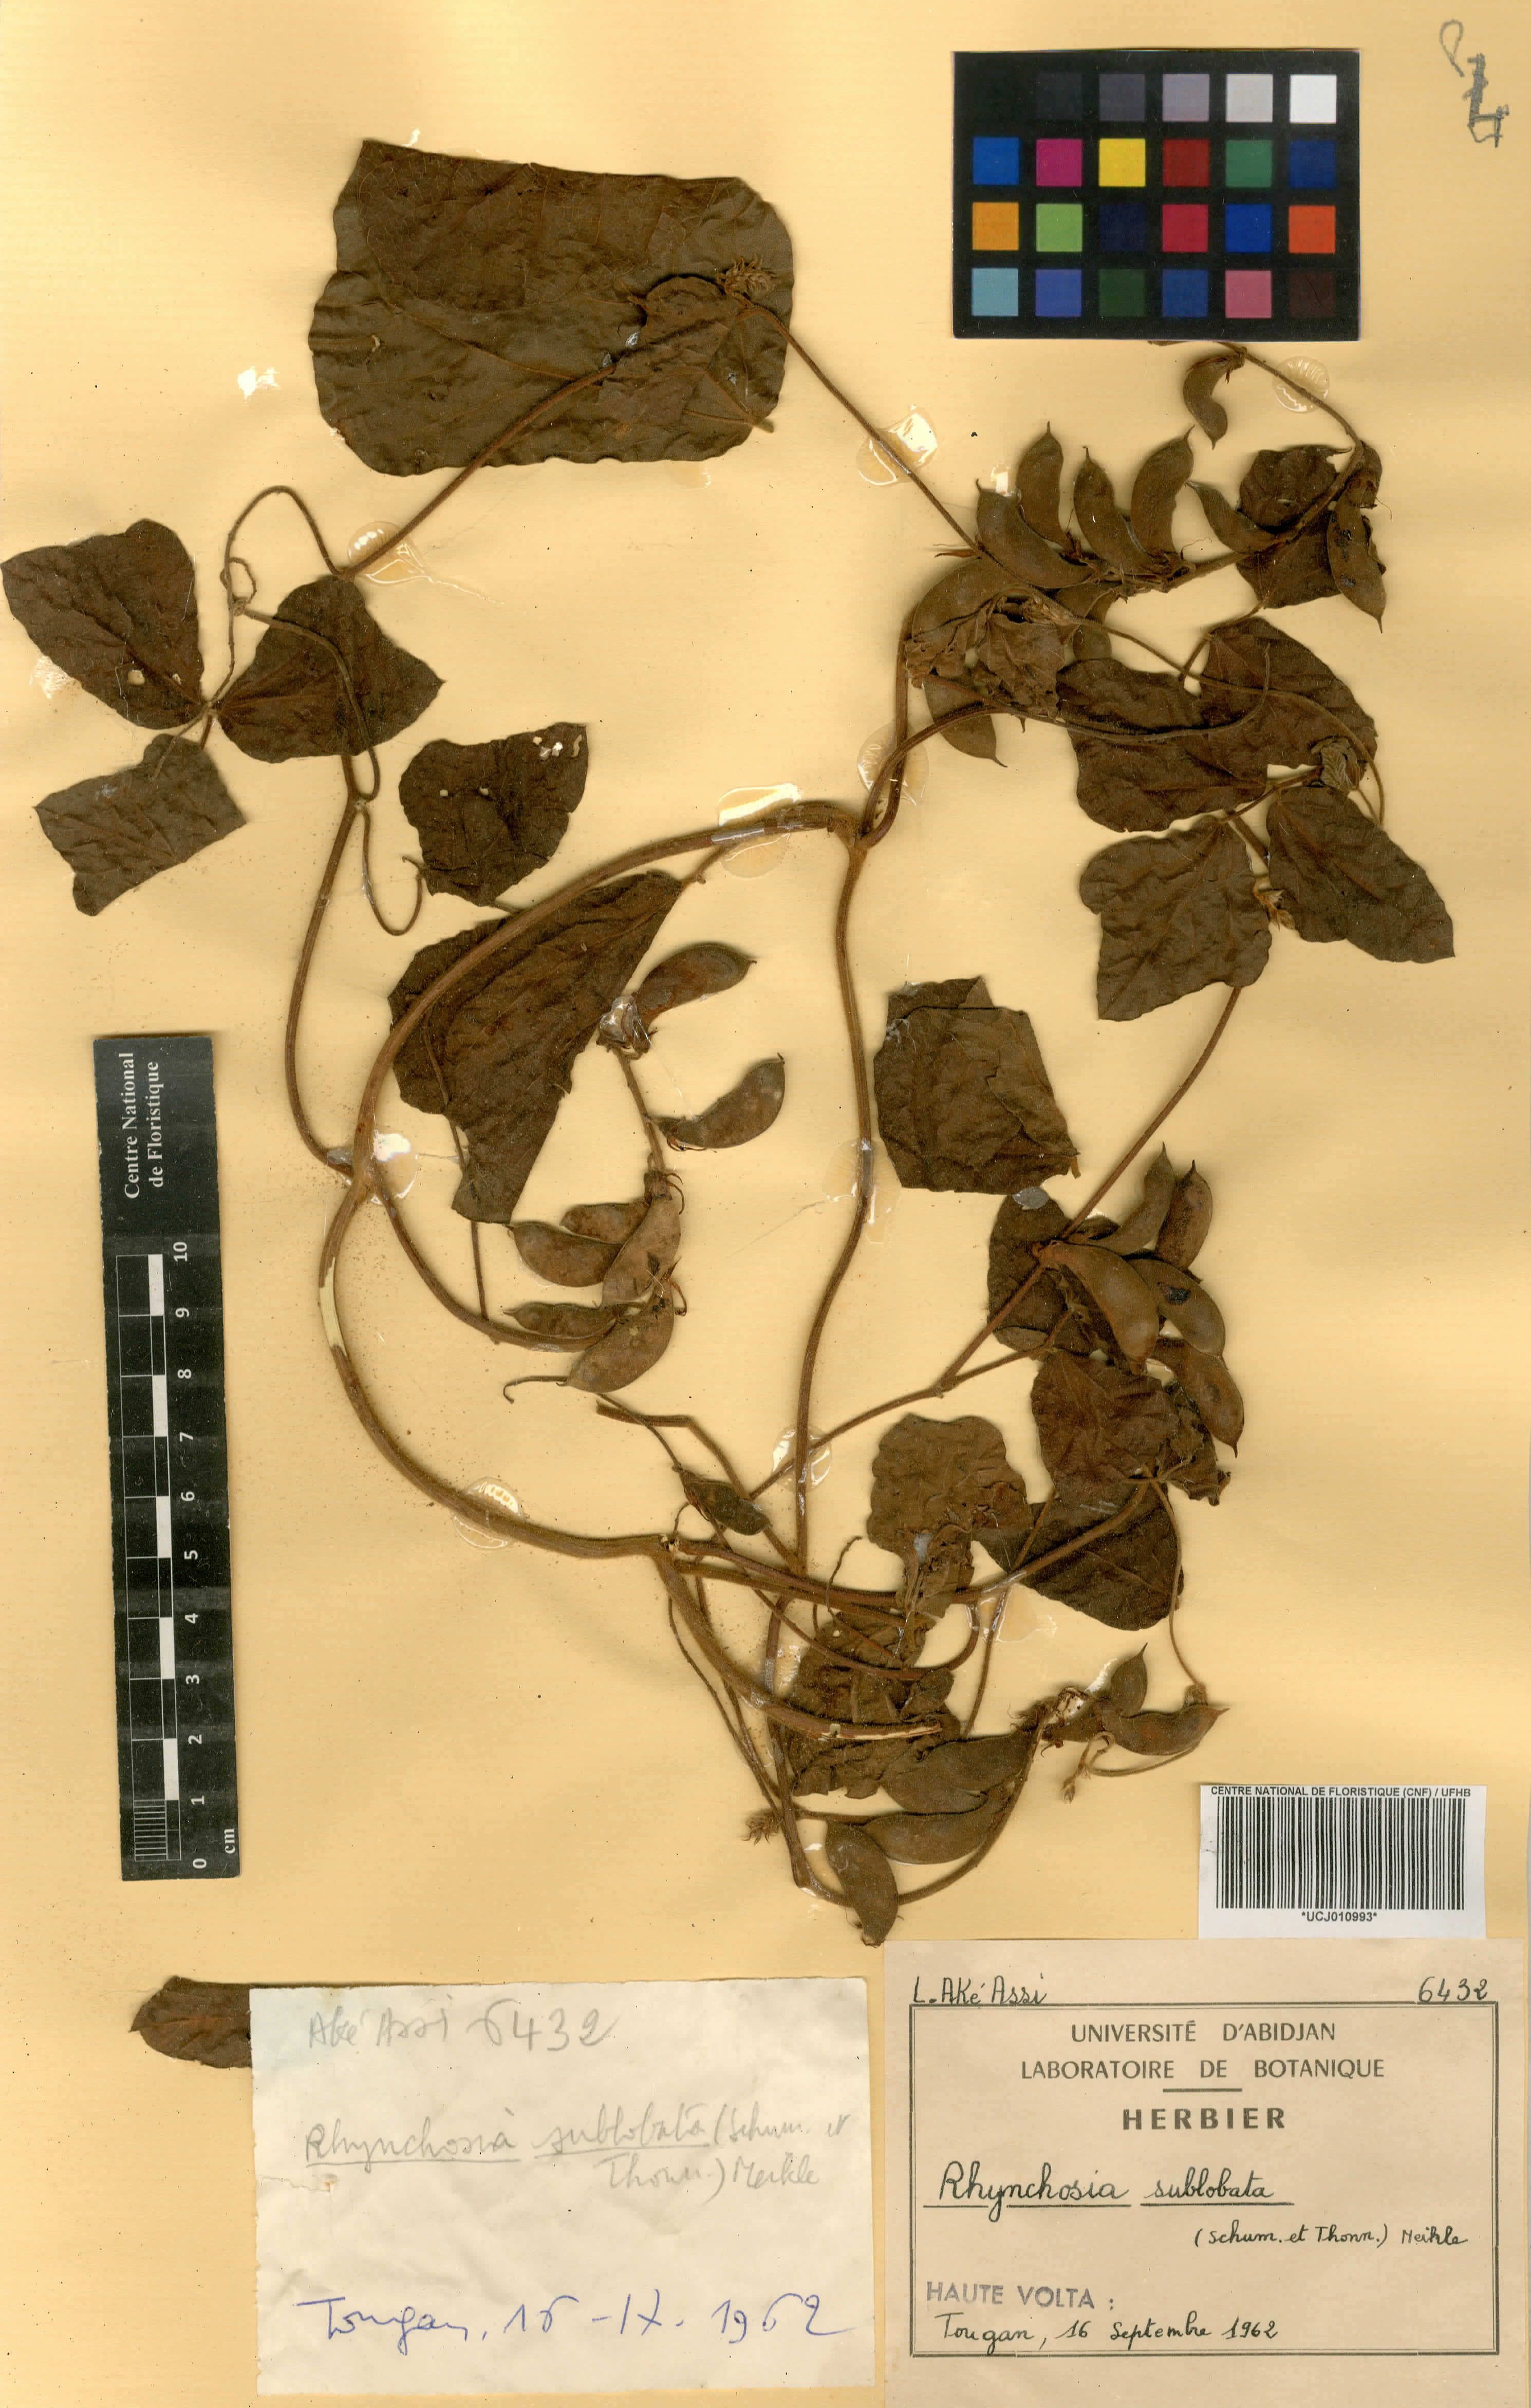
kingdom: Plantae
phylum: Tracheophyta
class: Magnoliopsida
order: Fabales
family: Fabaceae
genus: Rhynchosia
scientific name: Rhynchosia
